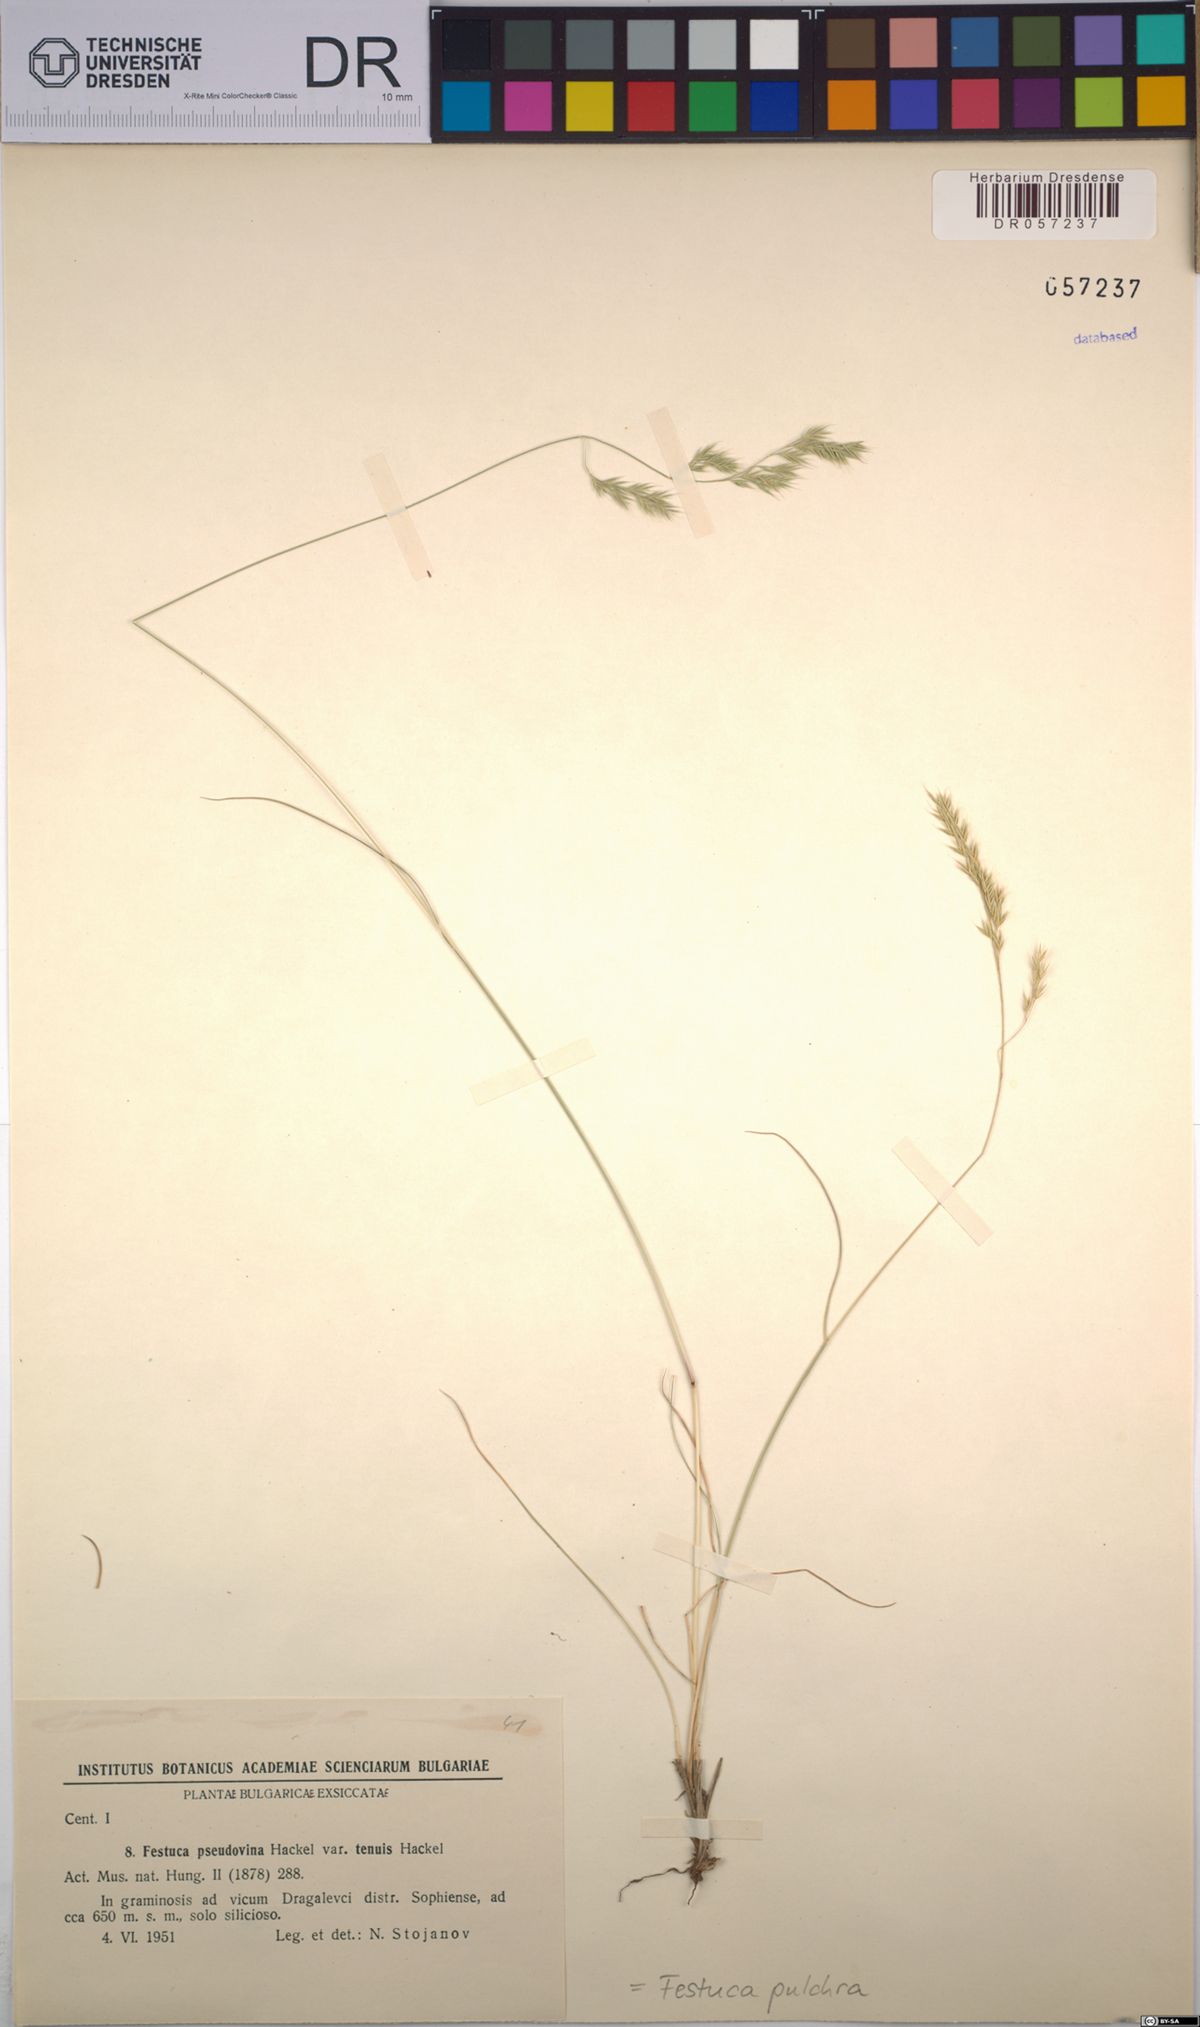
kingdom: Plantae
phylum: Tracheophyta
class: Liliopsida
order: Poales
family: Poaceae
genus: Festuca
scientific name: Festuca pulchra
